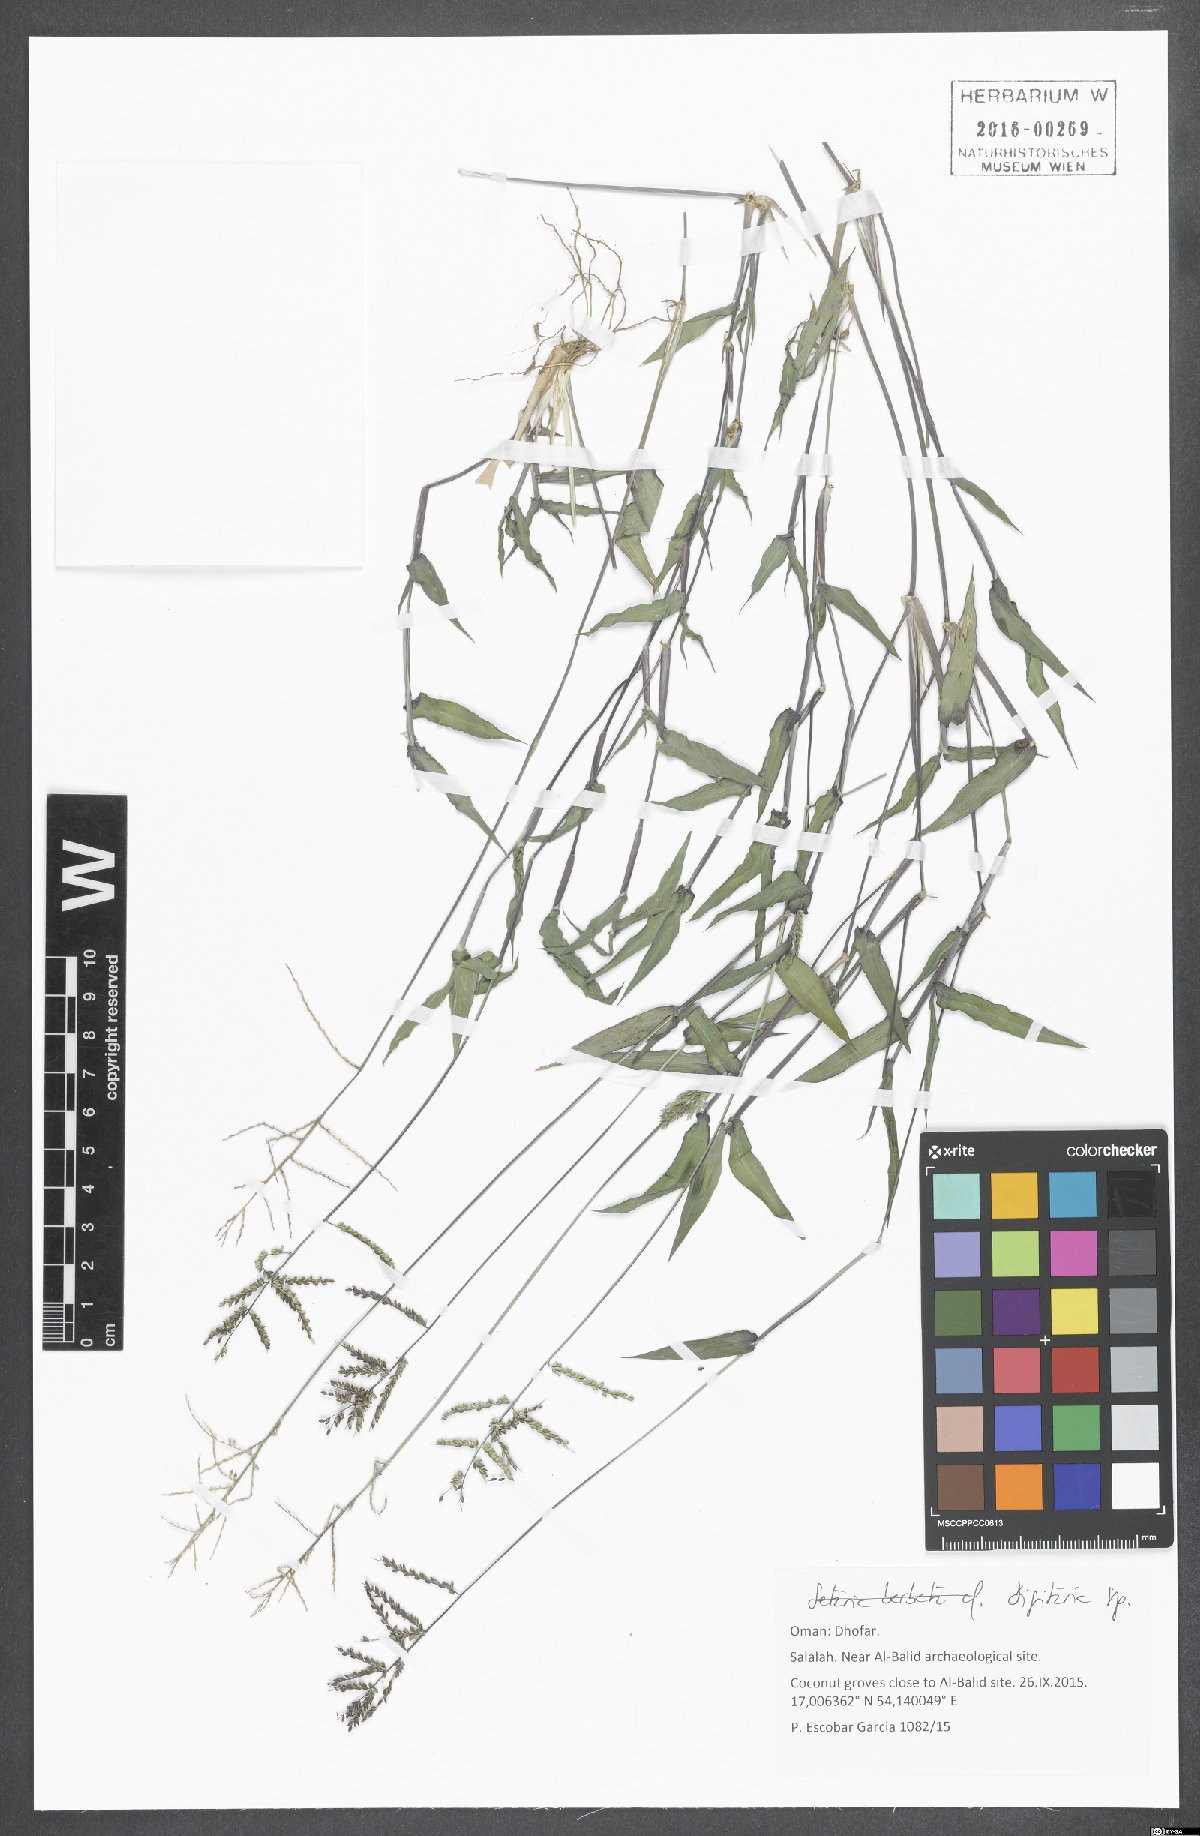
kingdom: Plantae
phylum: Tracheophyta
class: Liliopsida
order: Poales
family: Poaceae
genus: Digitaria
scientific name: Digitaria
